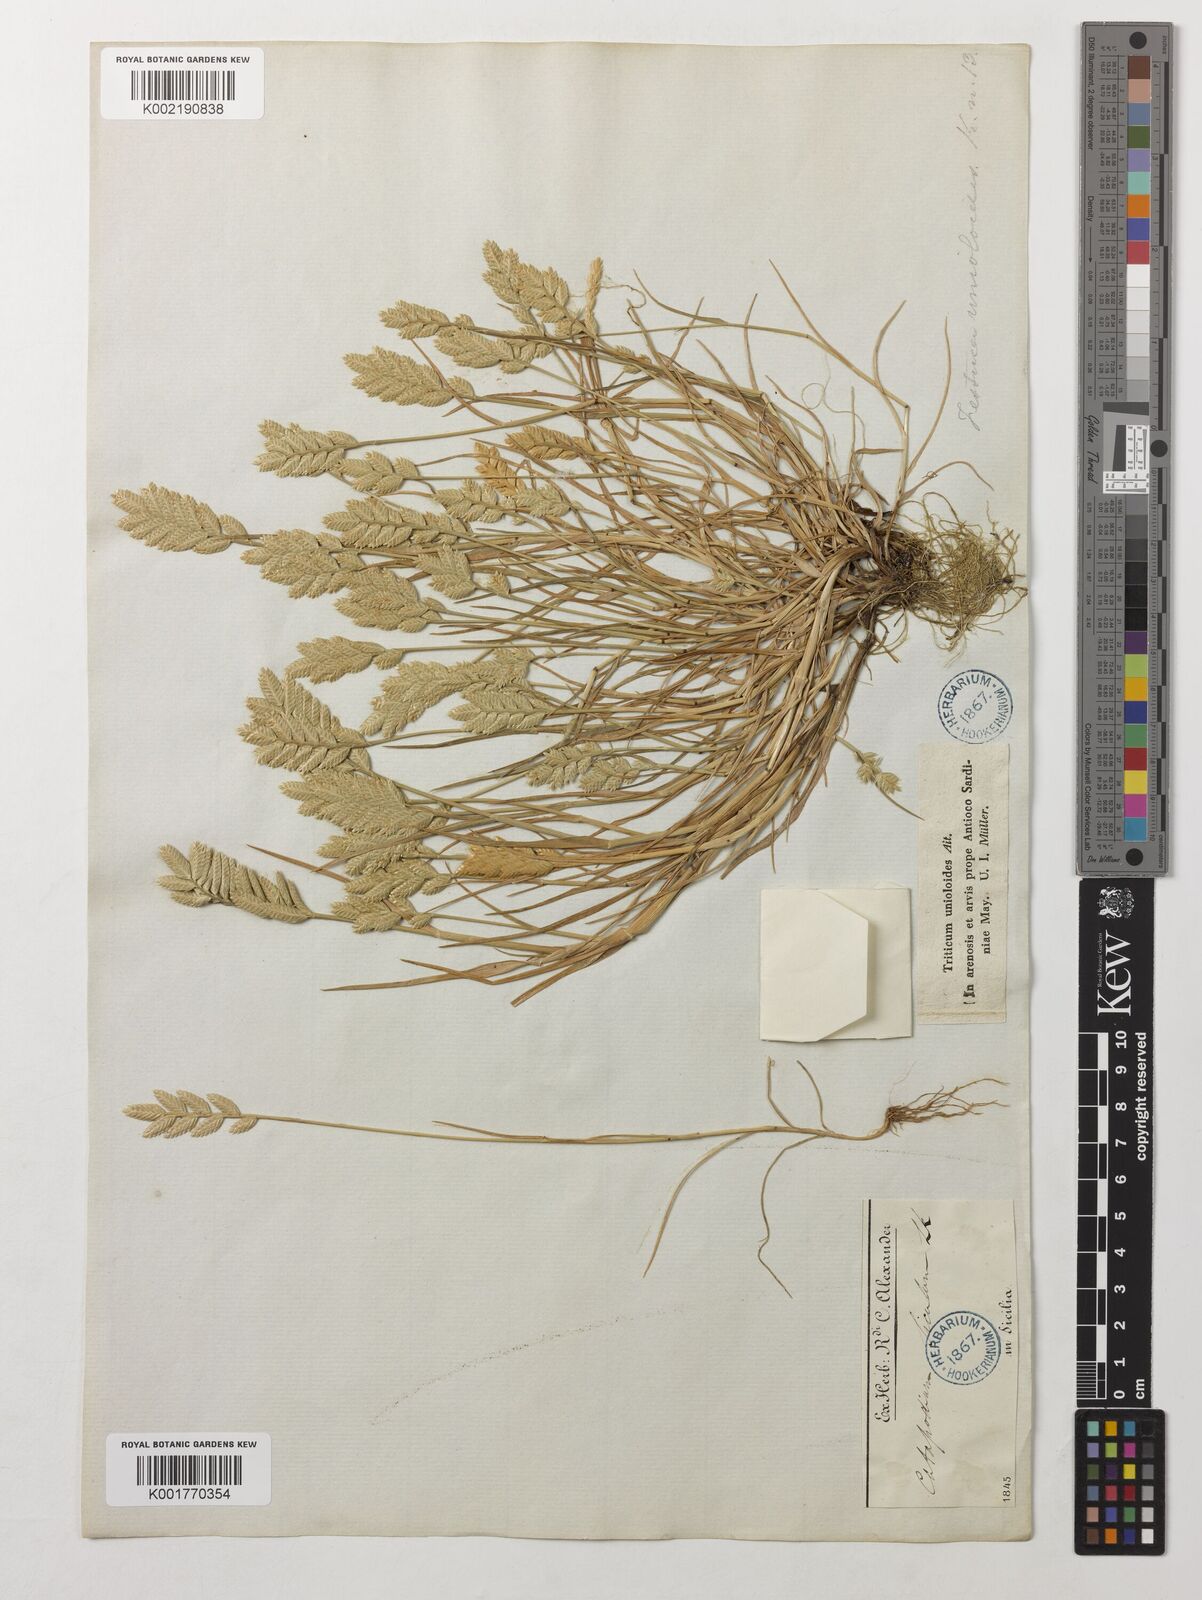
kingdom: Plantae
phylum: Tracheophyta
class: Liliopsida
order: Poales
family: Poaceae
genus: Desmazeria
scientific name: Desmazeria sicula
